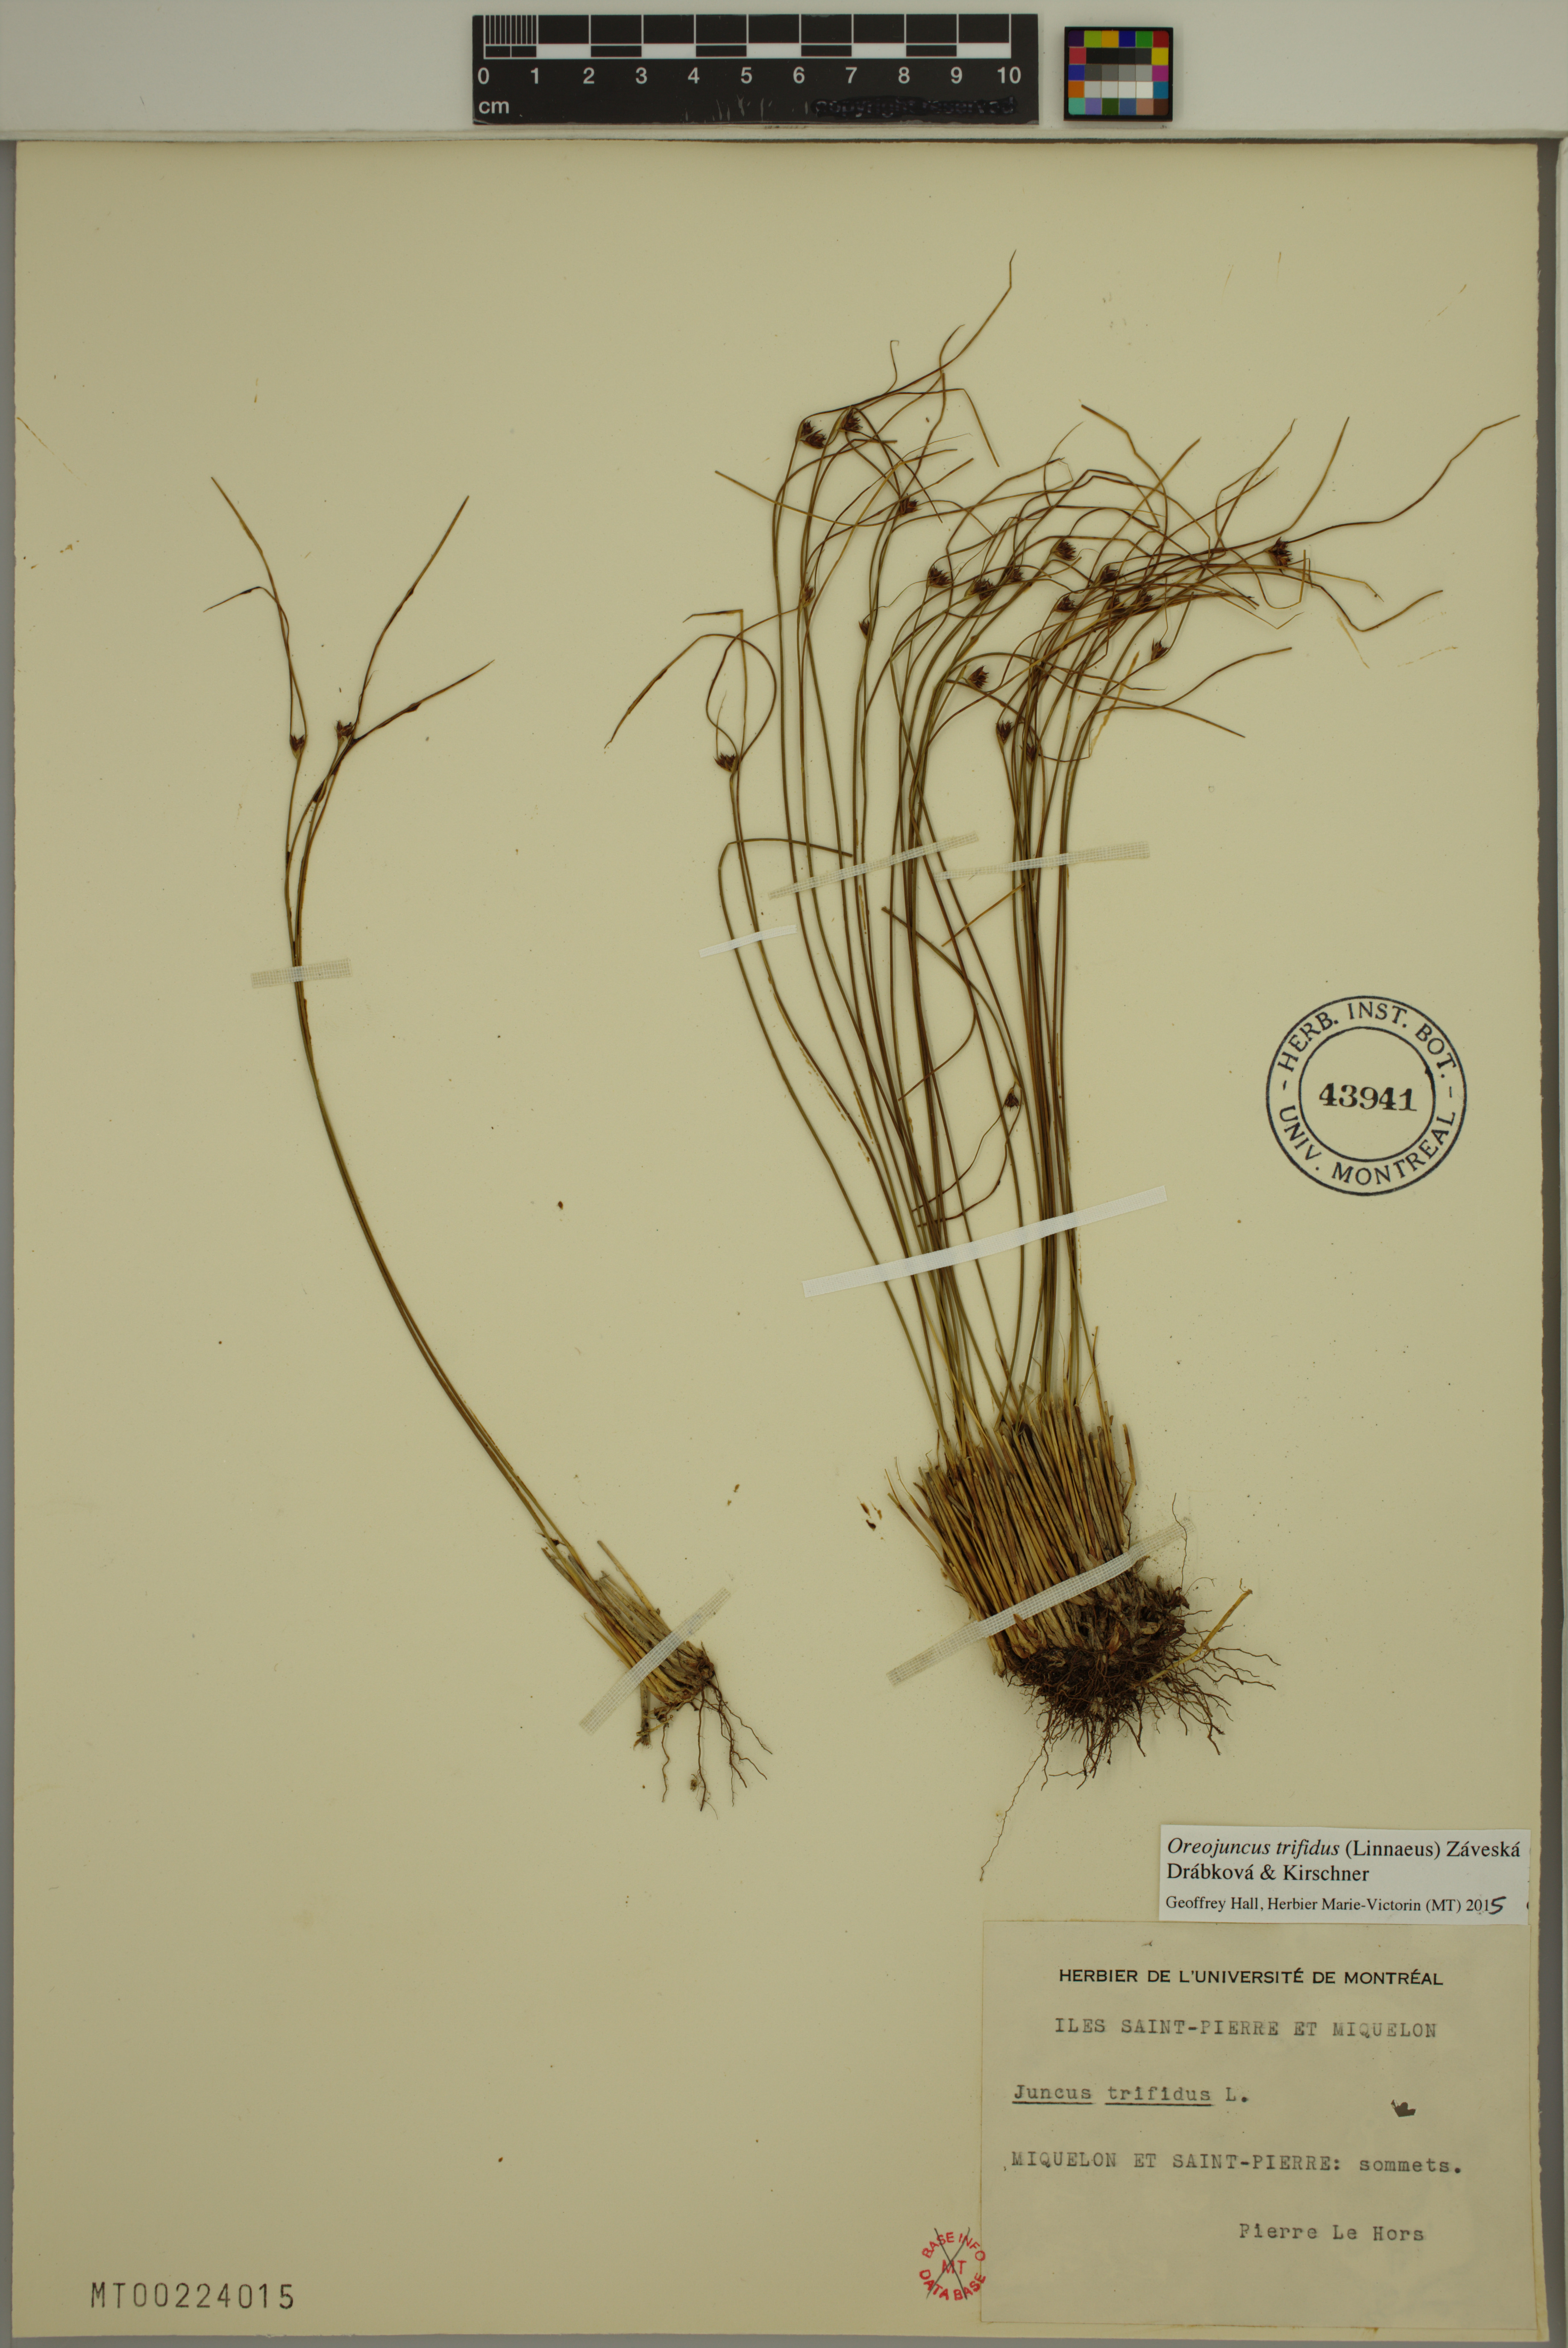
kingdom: Plantae
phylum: Tracheophyta
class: Liliopsida
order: Poales
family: Juncaceae
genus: Oreojuncus
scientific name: Oreojuncus trifidus
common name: Highland rush
